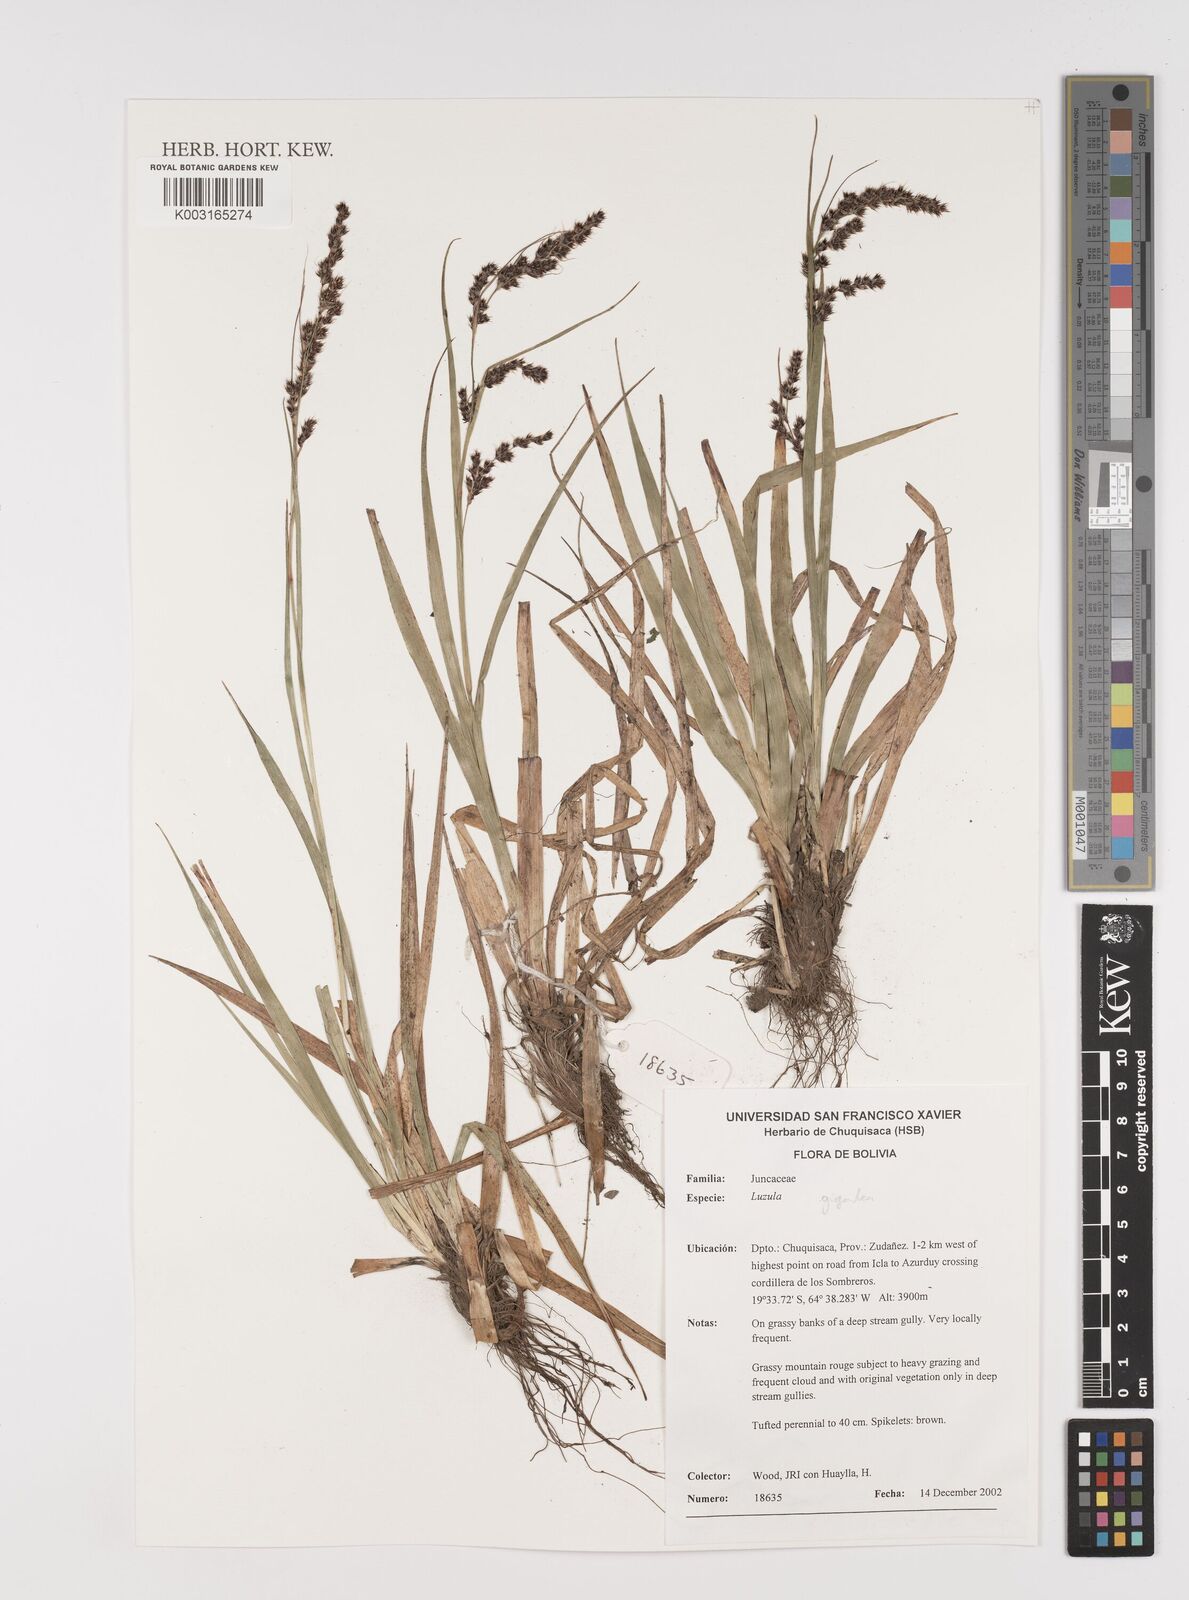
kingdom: Plantae
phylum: Tracheophyta
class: Liliopsida
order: Poales
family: Juncaceae
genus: Luzula
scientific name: Luzula gigantea
